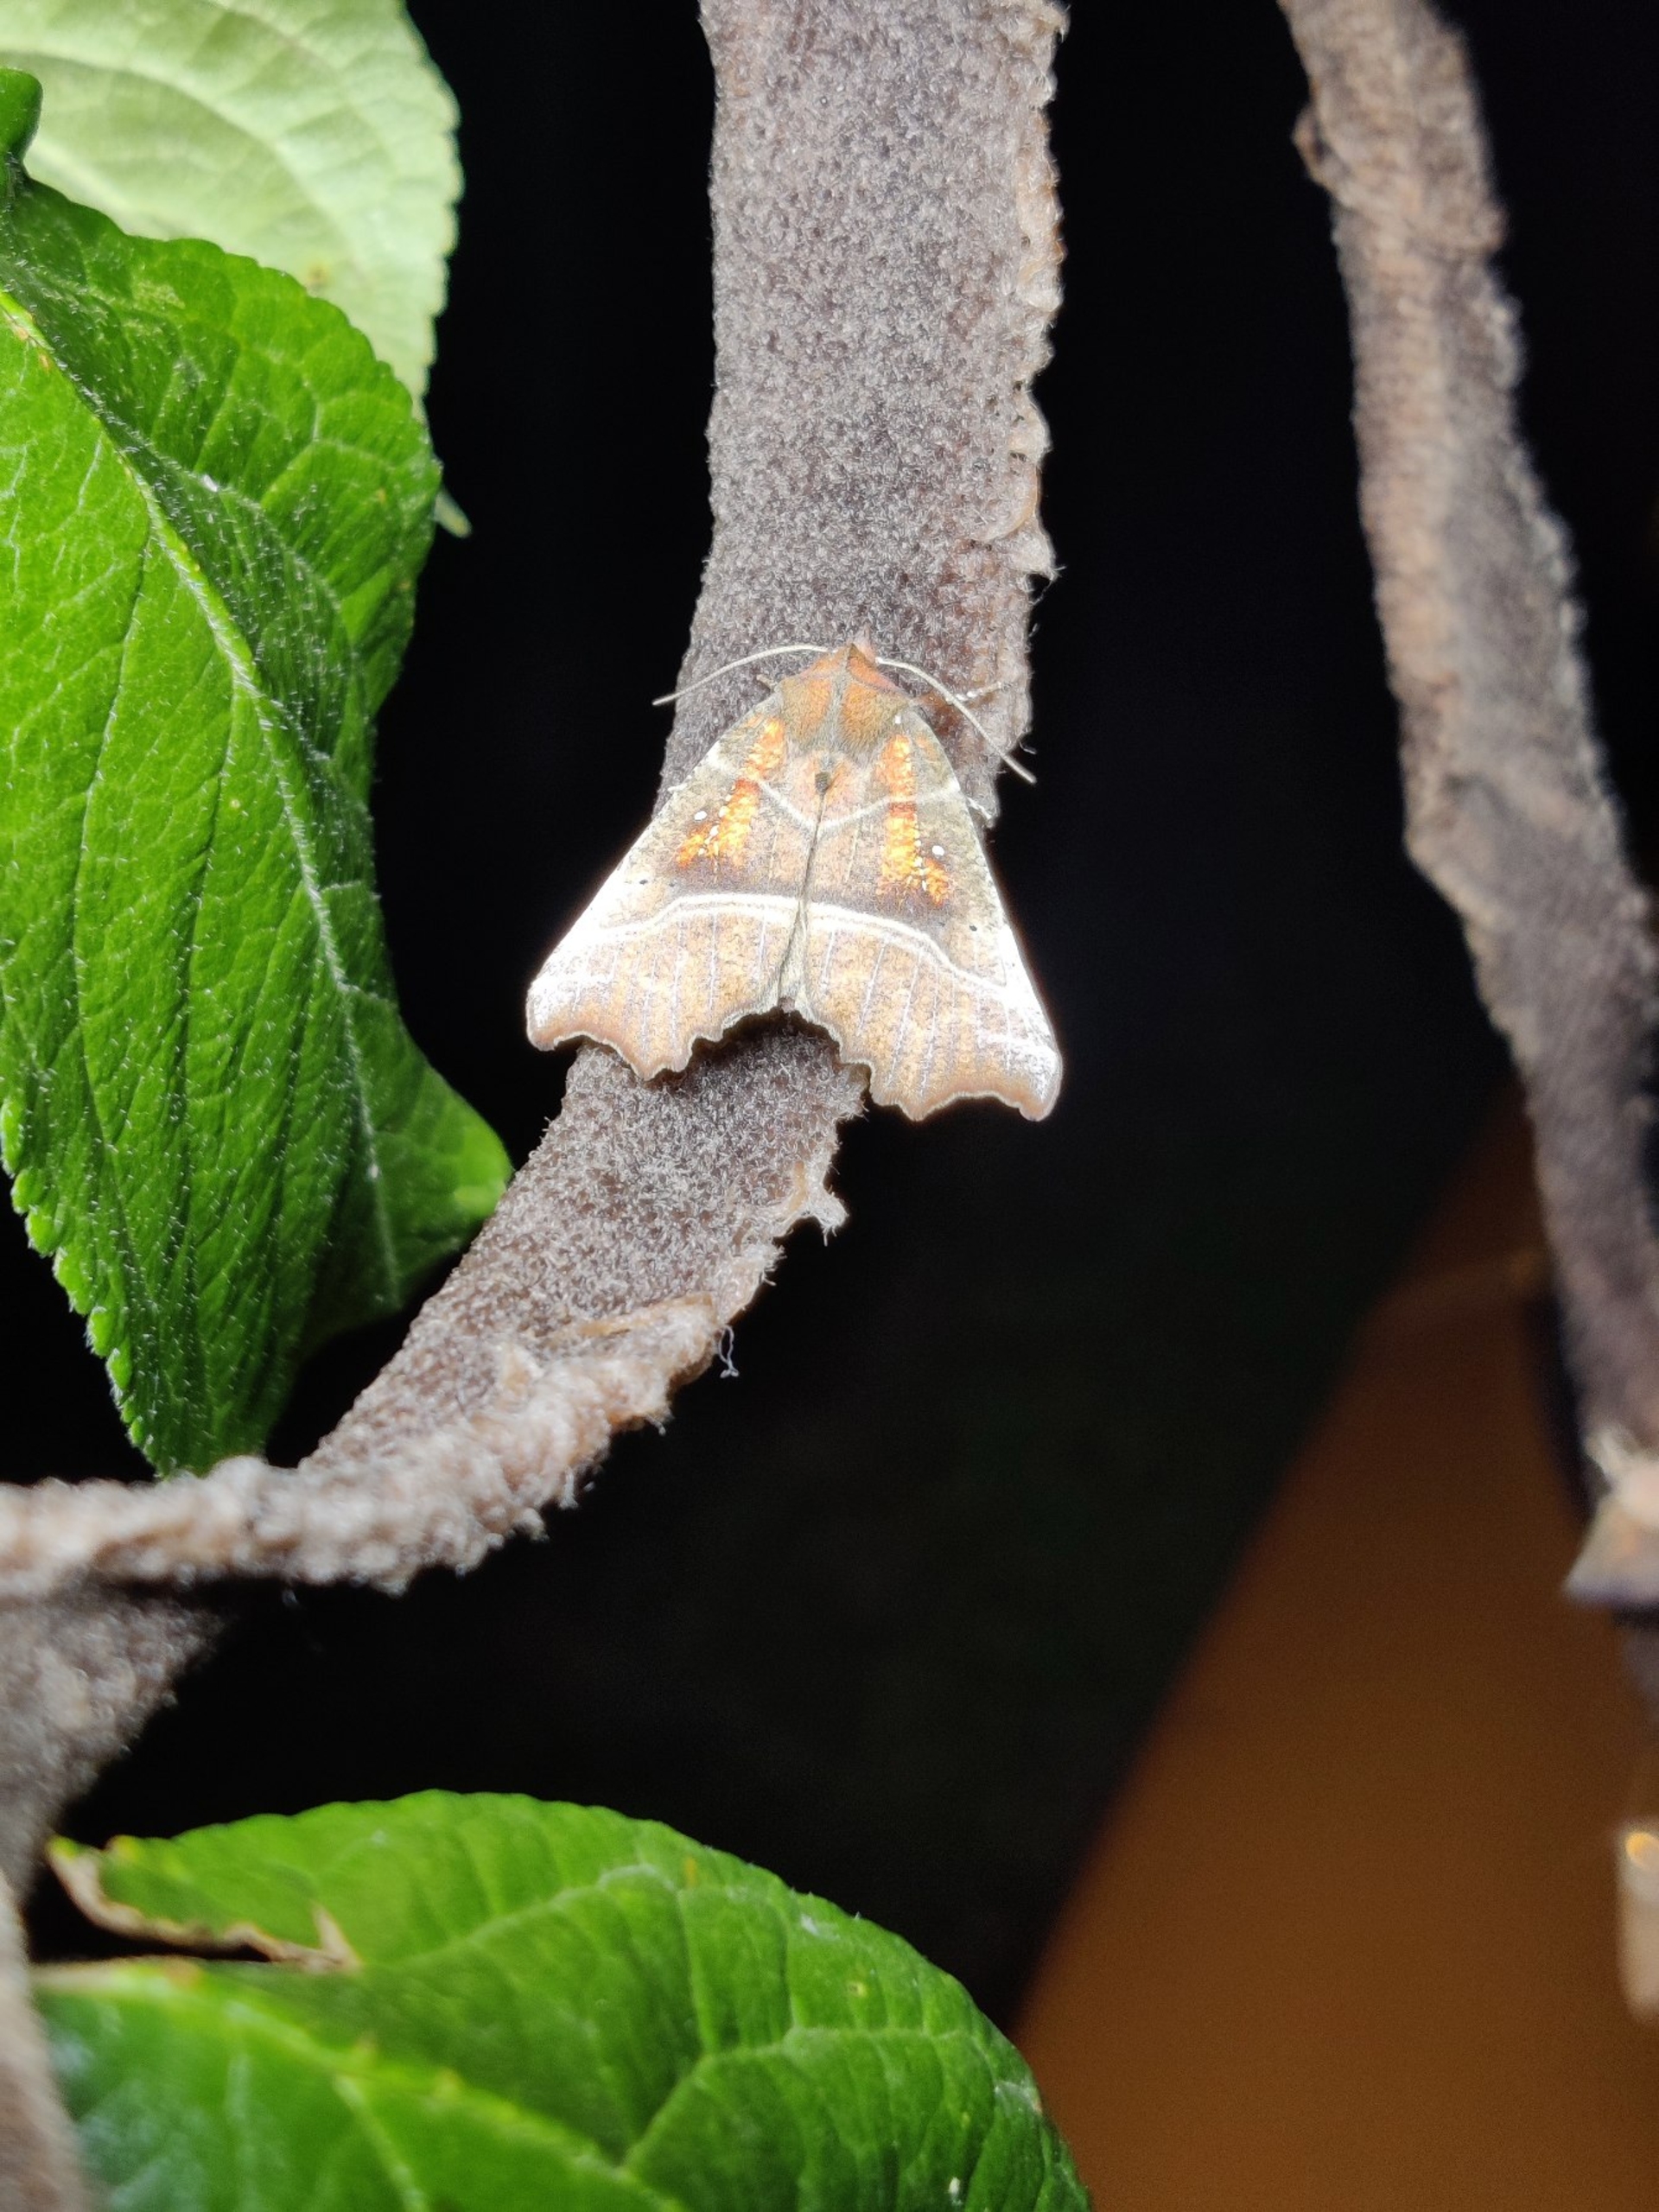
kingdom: Animalia
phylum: Arthropoda
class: Insecta
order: Lepidoptera
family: Erebidae
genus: Scoliopteryx
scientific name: Scoliopteryx libatrix
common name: Husmoderugle
